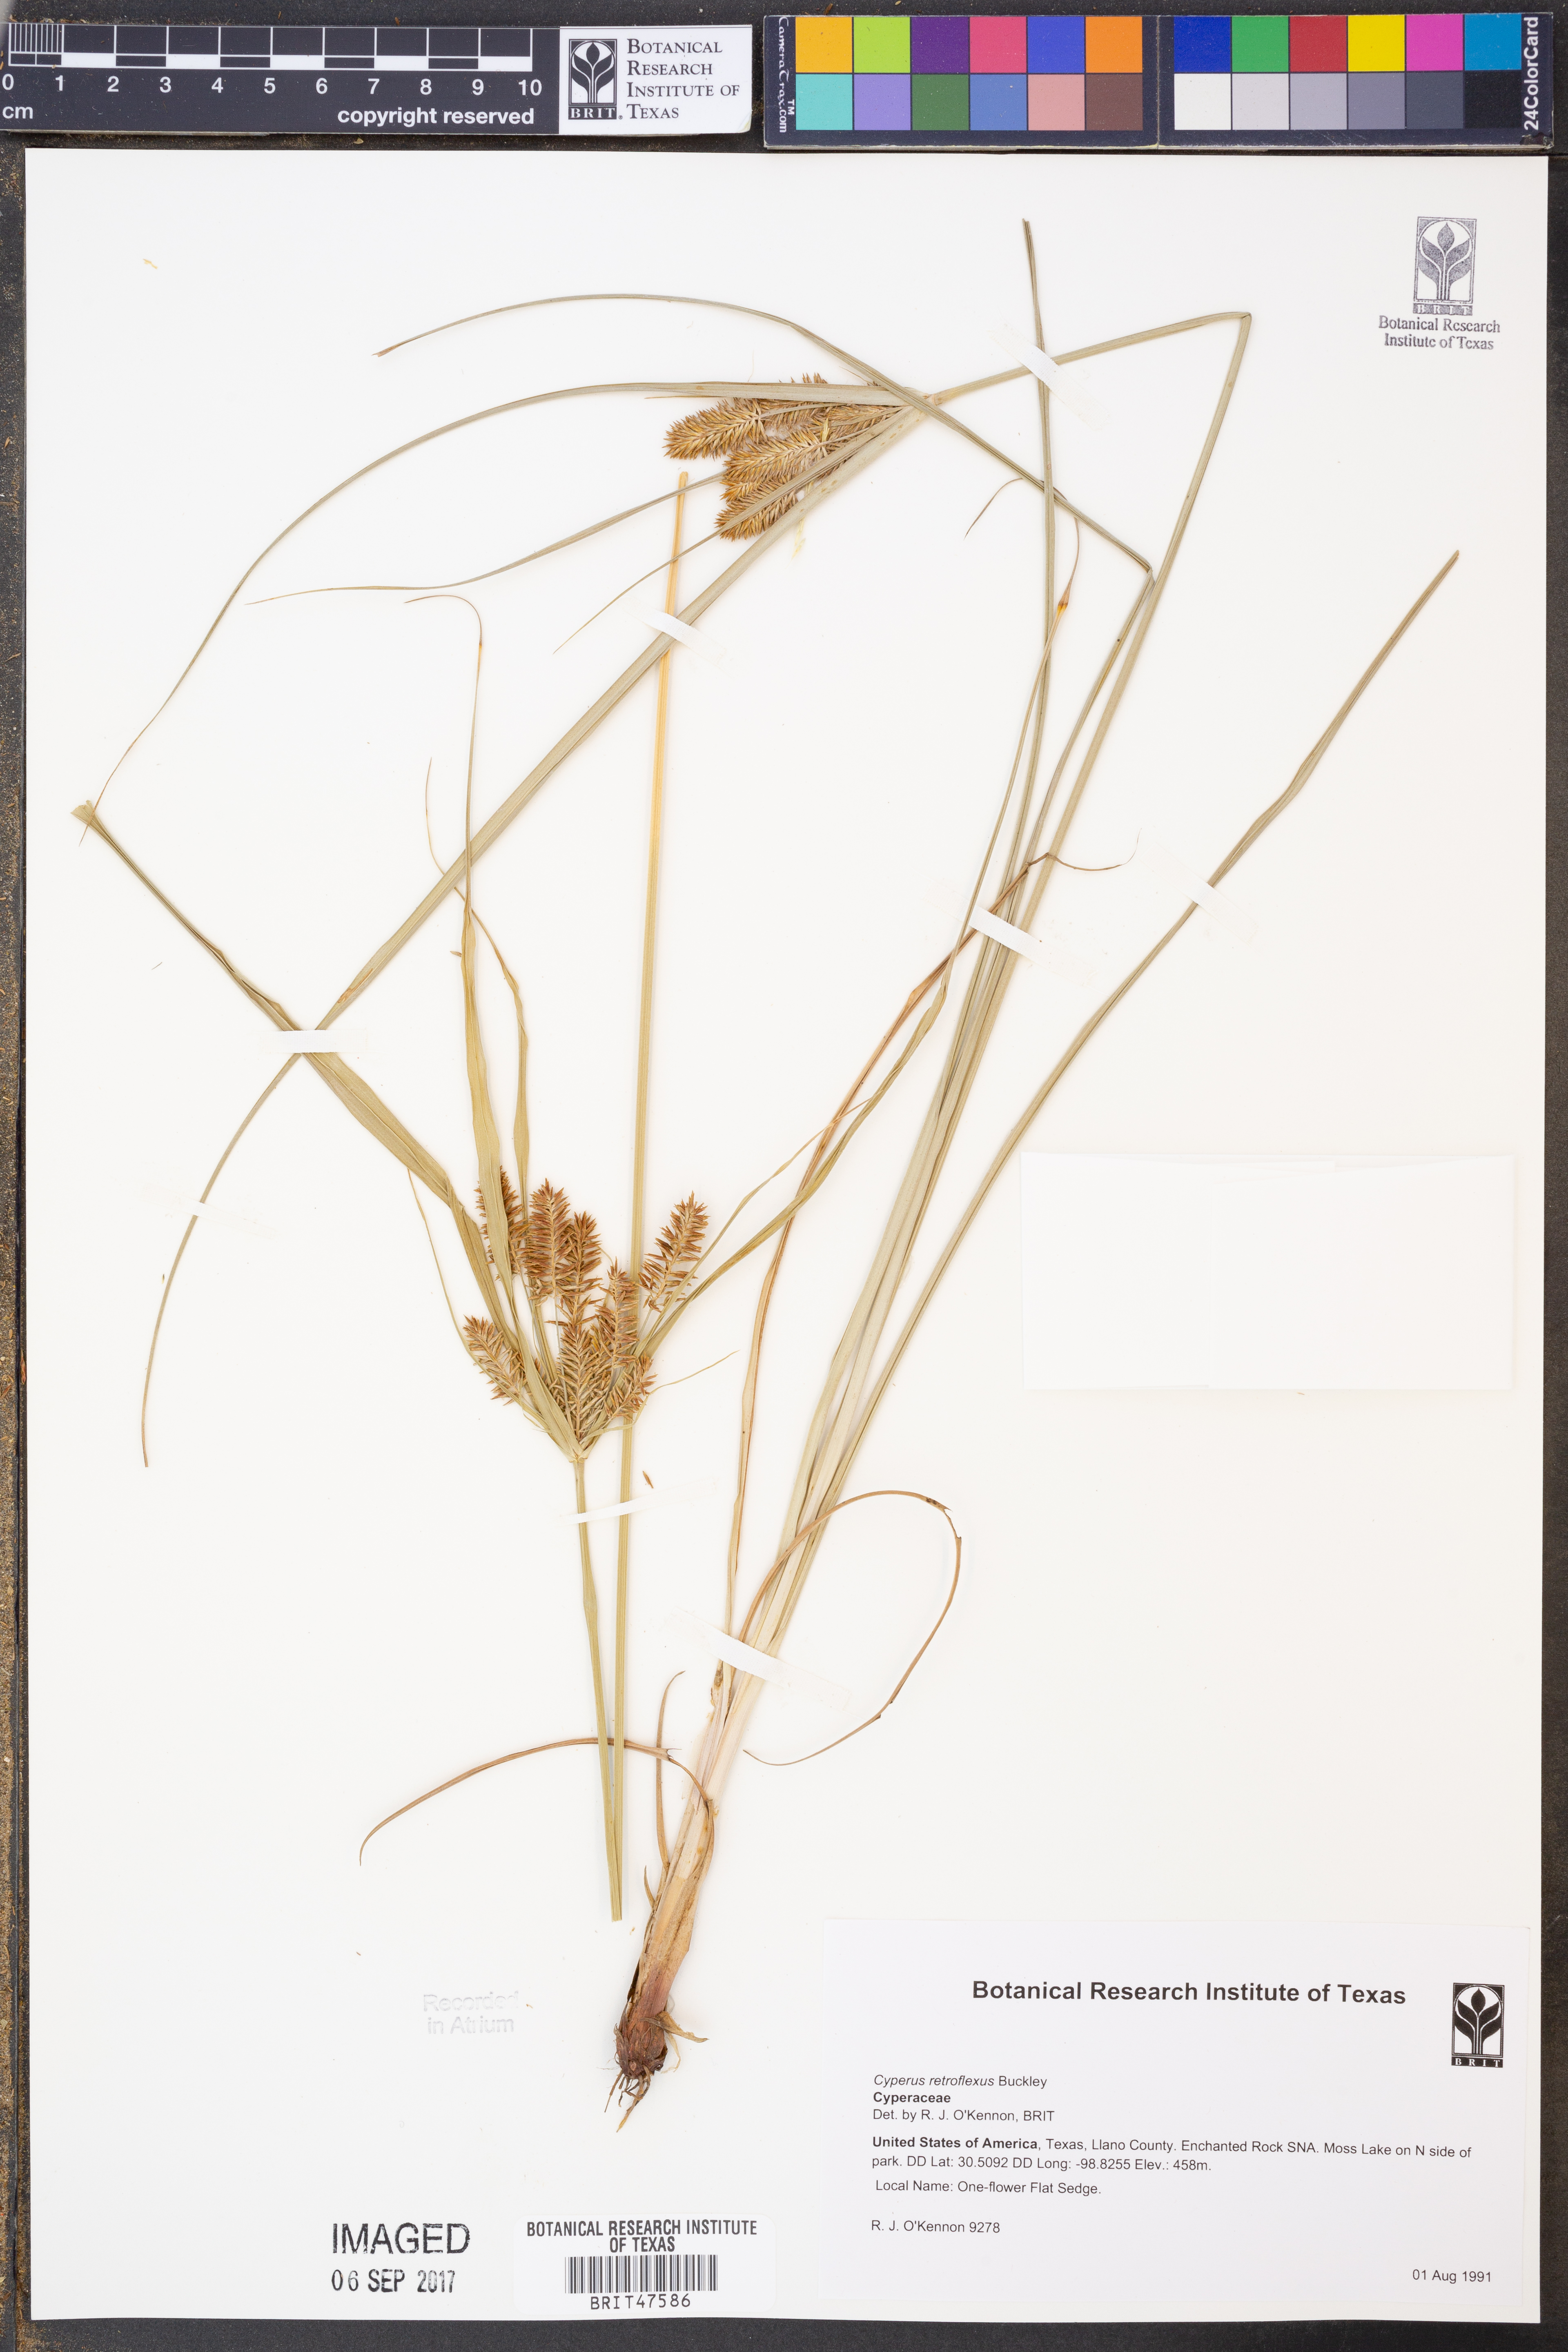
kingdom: Plantae
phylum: Tracheophyta
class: Liliopsida
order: Poales
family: Cyperaceae
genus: Cyperus
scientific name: Cyperus retroflexus
